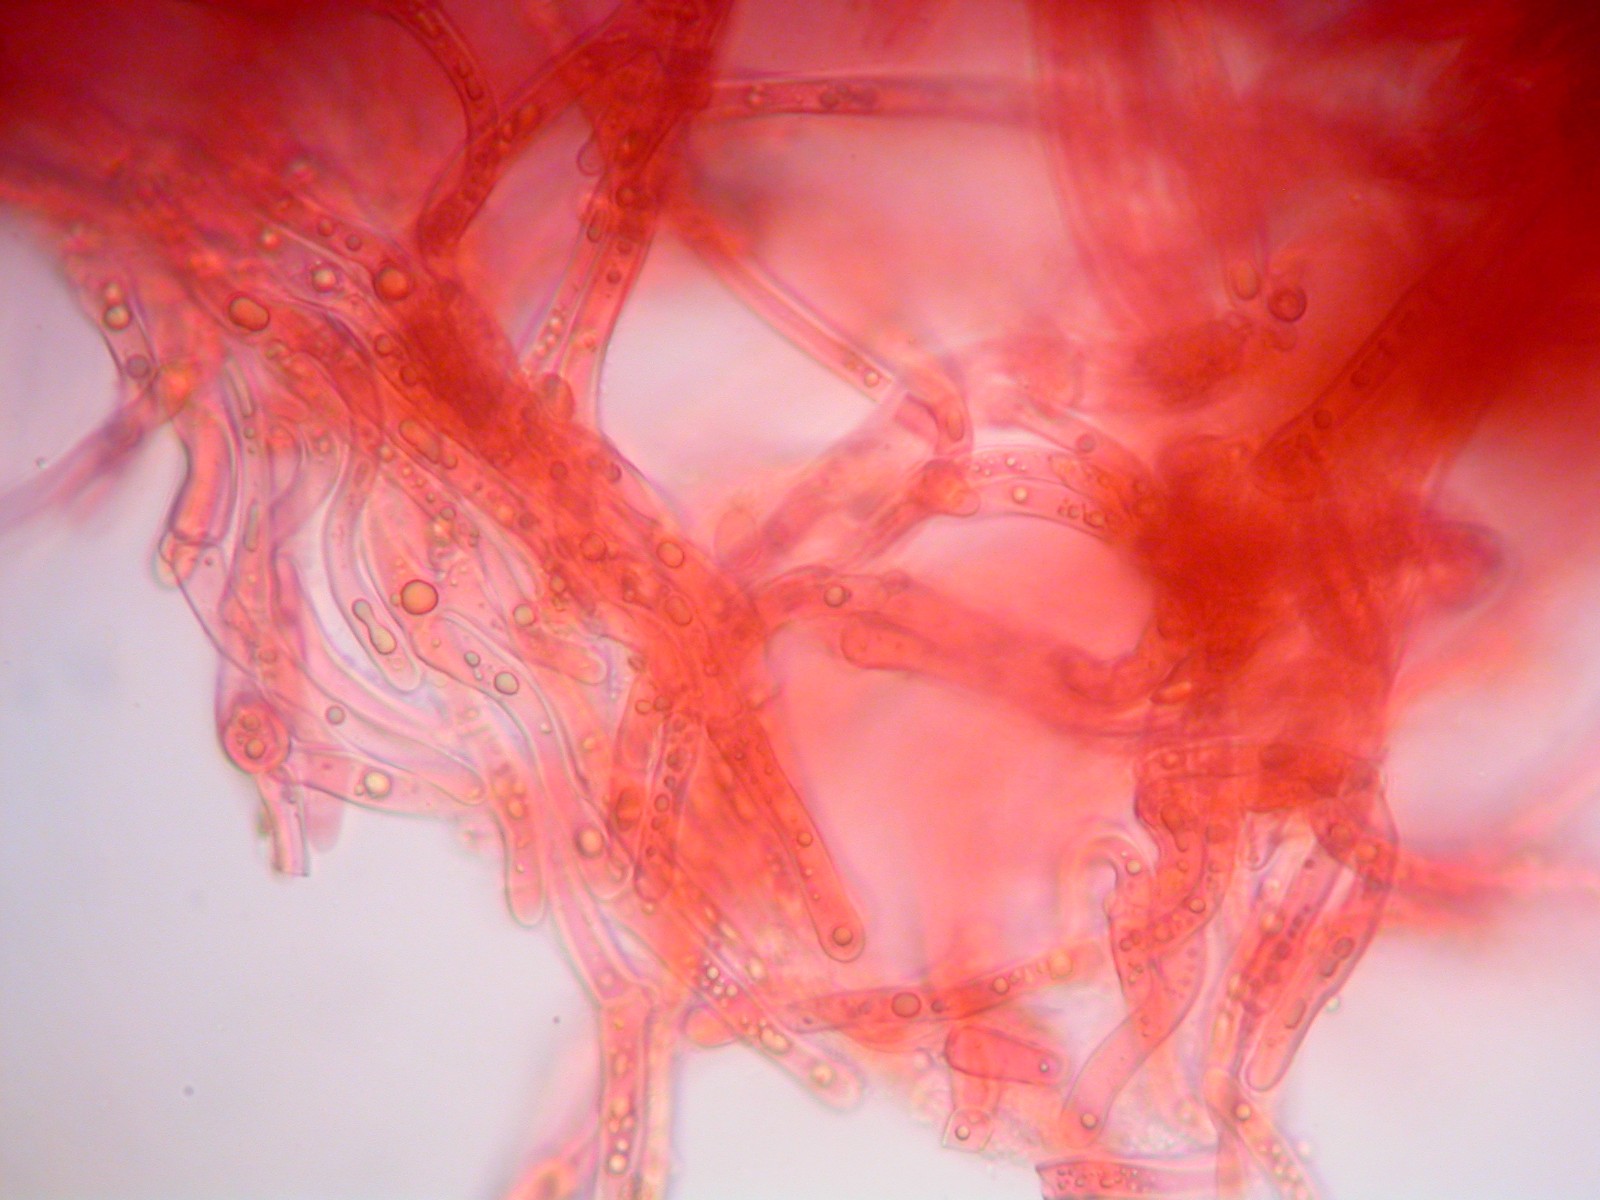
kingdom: Fungi
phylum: Basidiomycota
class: Agaricomycetes
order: Cantharellales
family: Hydnaceae
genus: Cantharellus
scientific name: Cantharellus cibarius
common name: almindelig kantarel
